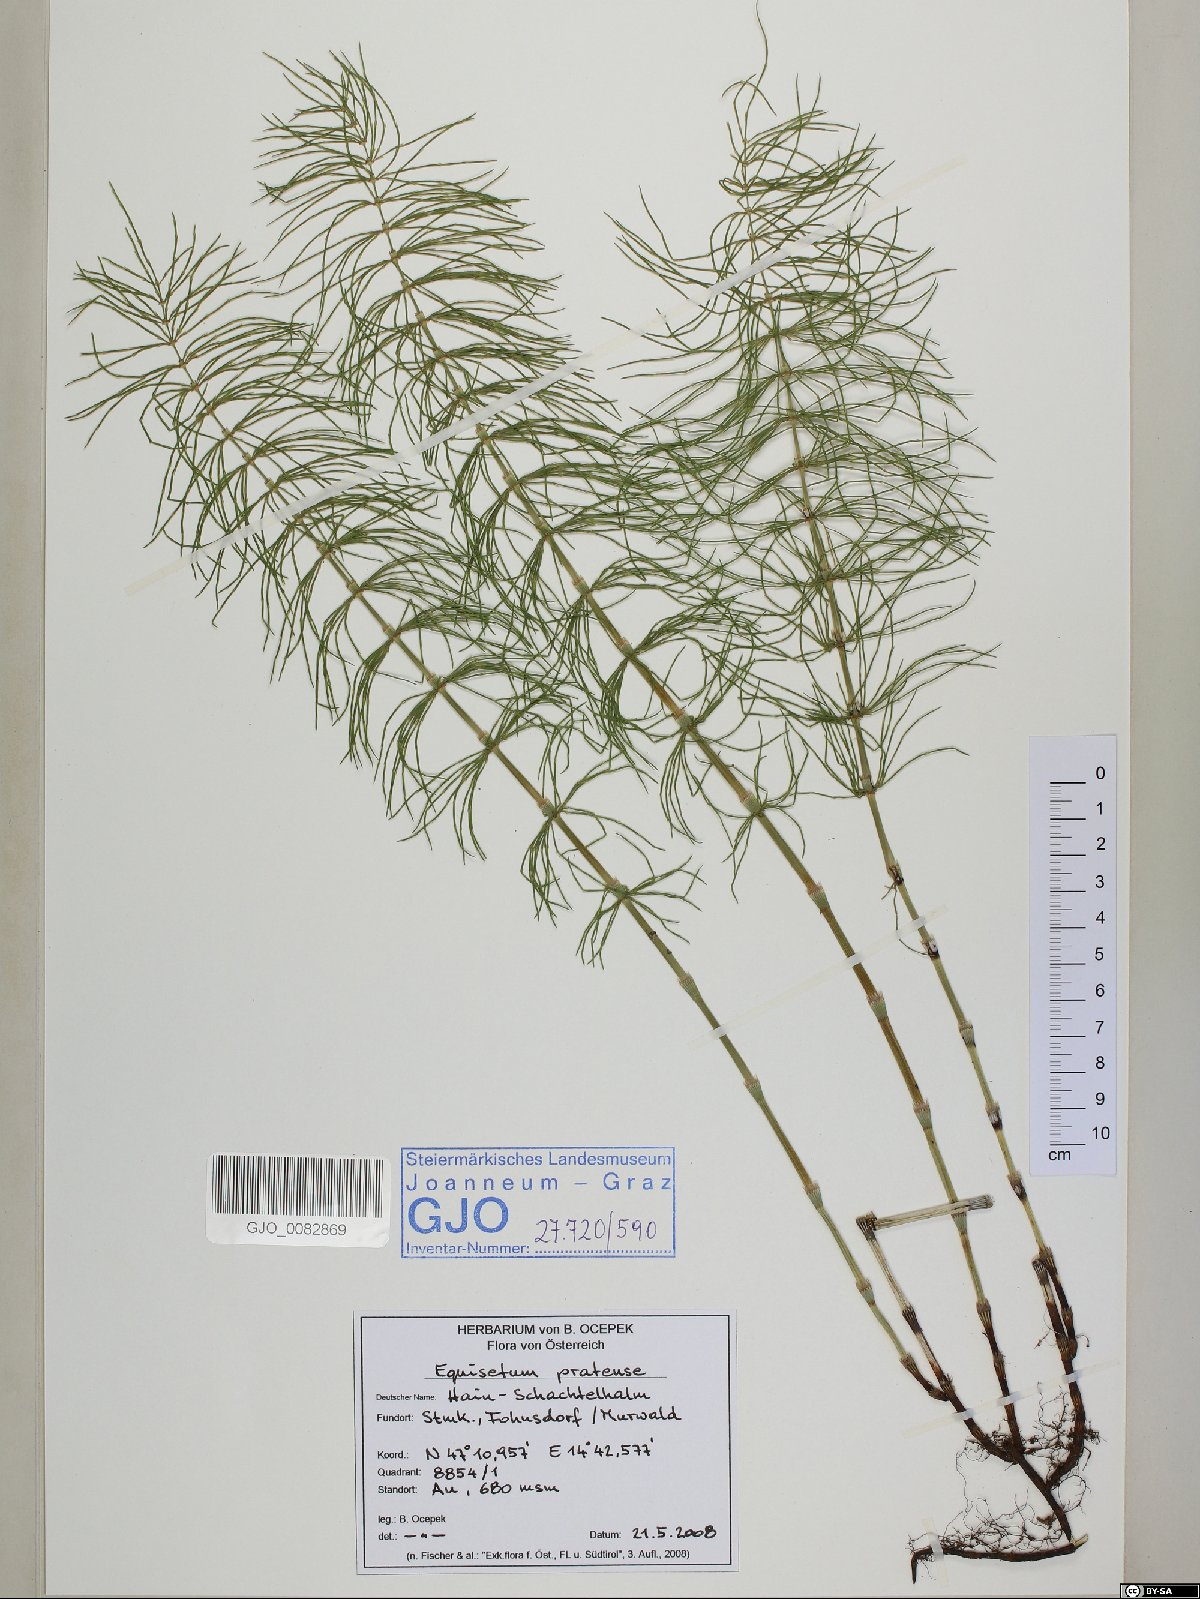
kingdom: Plantae
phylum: Tracheophyta
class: Polypodiopsida
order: Equisetales
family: Equisetaceae
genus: Equisetum
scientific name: Equisetum pratense
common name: Meadow horsetail
